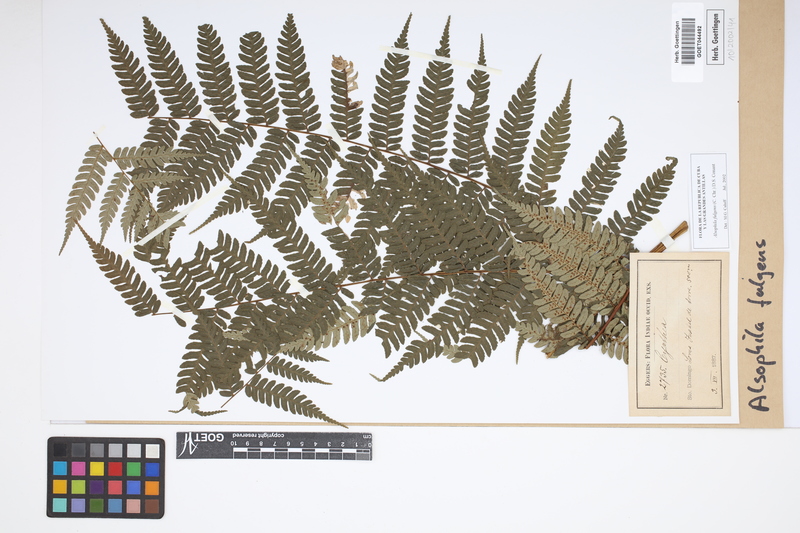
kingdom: Plantae
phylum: Tracheophyta
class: Polypodiopsida
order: Cyatheales
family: Cyatheaceae
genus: Alsophila
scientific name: Alsophila fulgens
